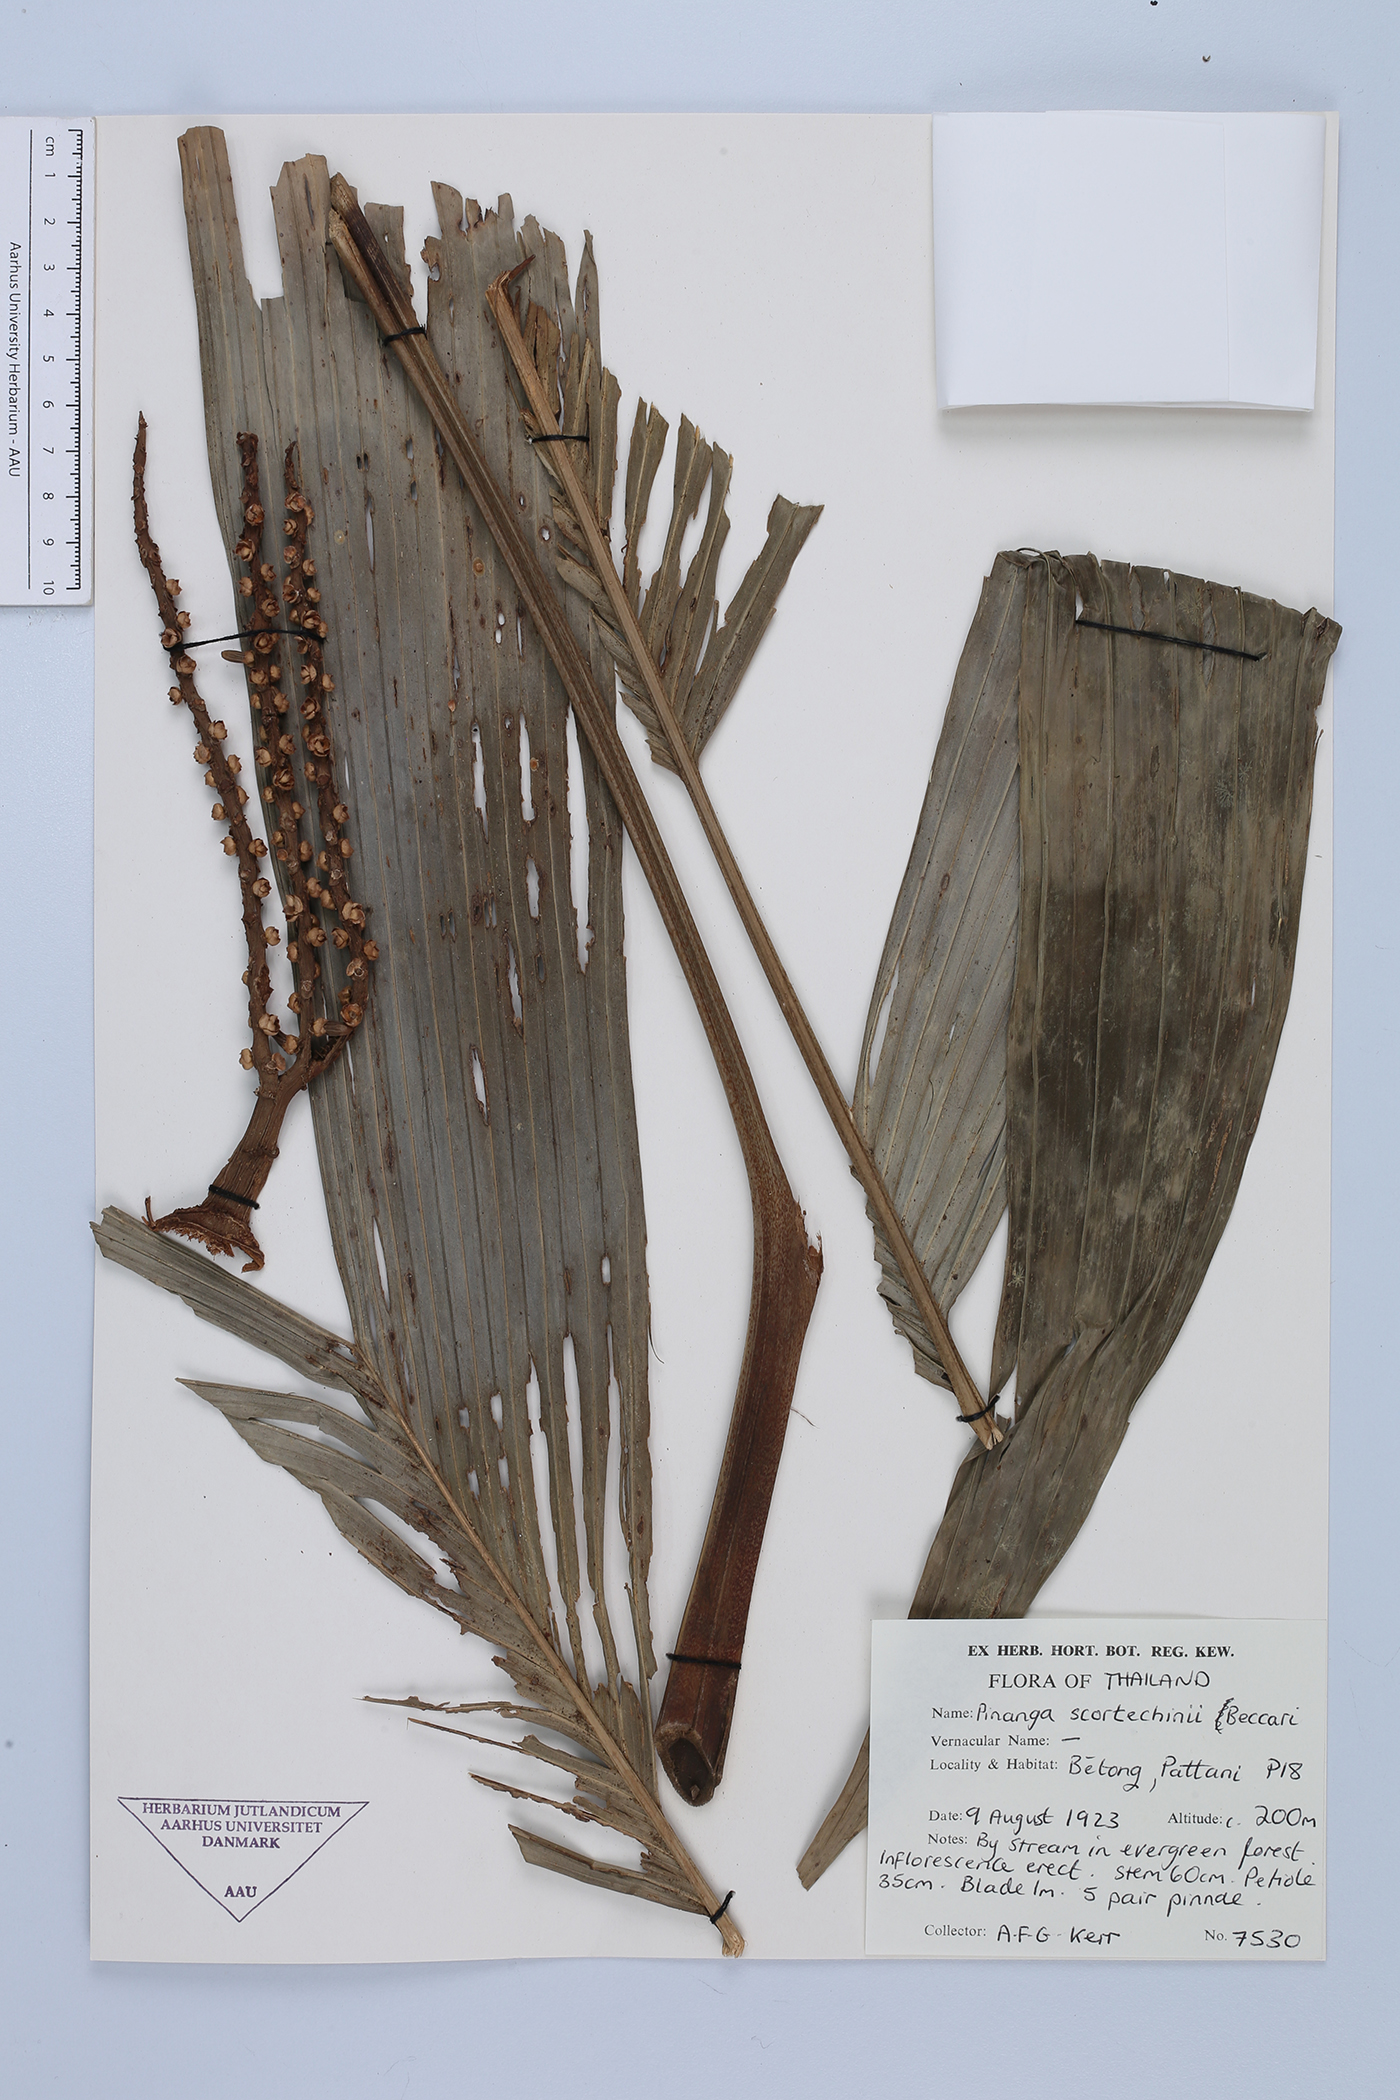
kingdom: Plantae
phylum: Tracheophyta
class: Liliopsida
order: Arecales
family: Arecaceae
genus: Pinanga
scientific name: Pinanga scortechinii
